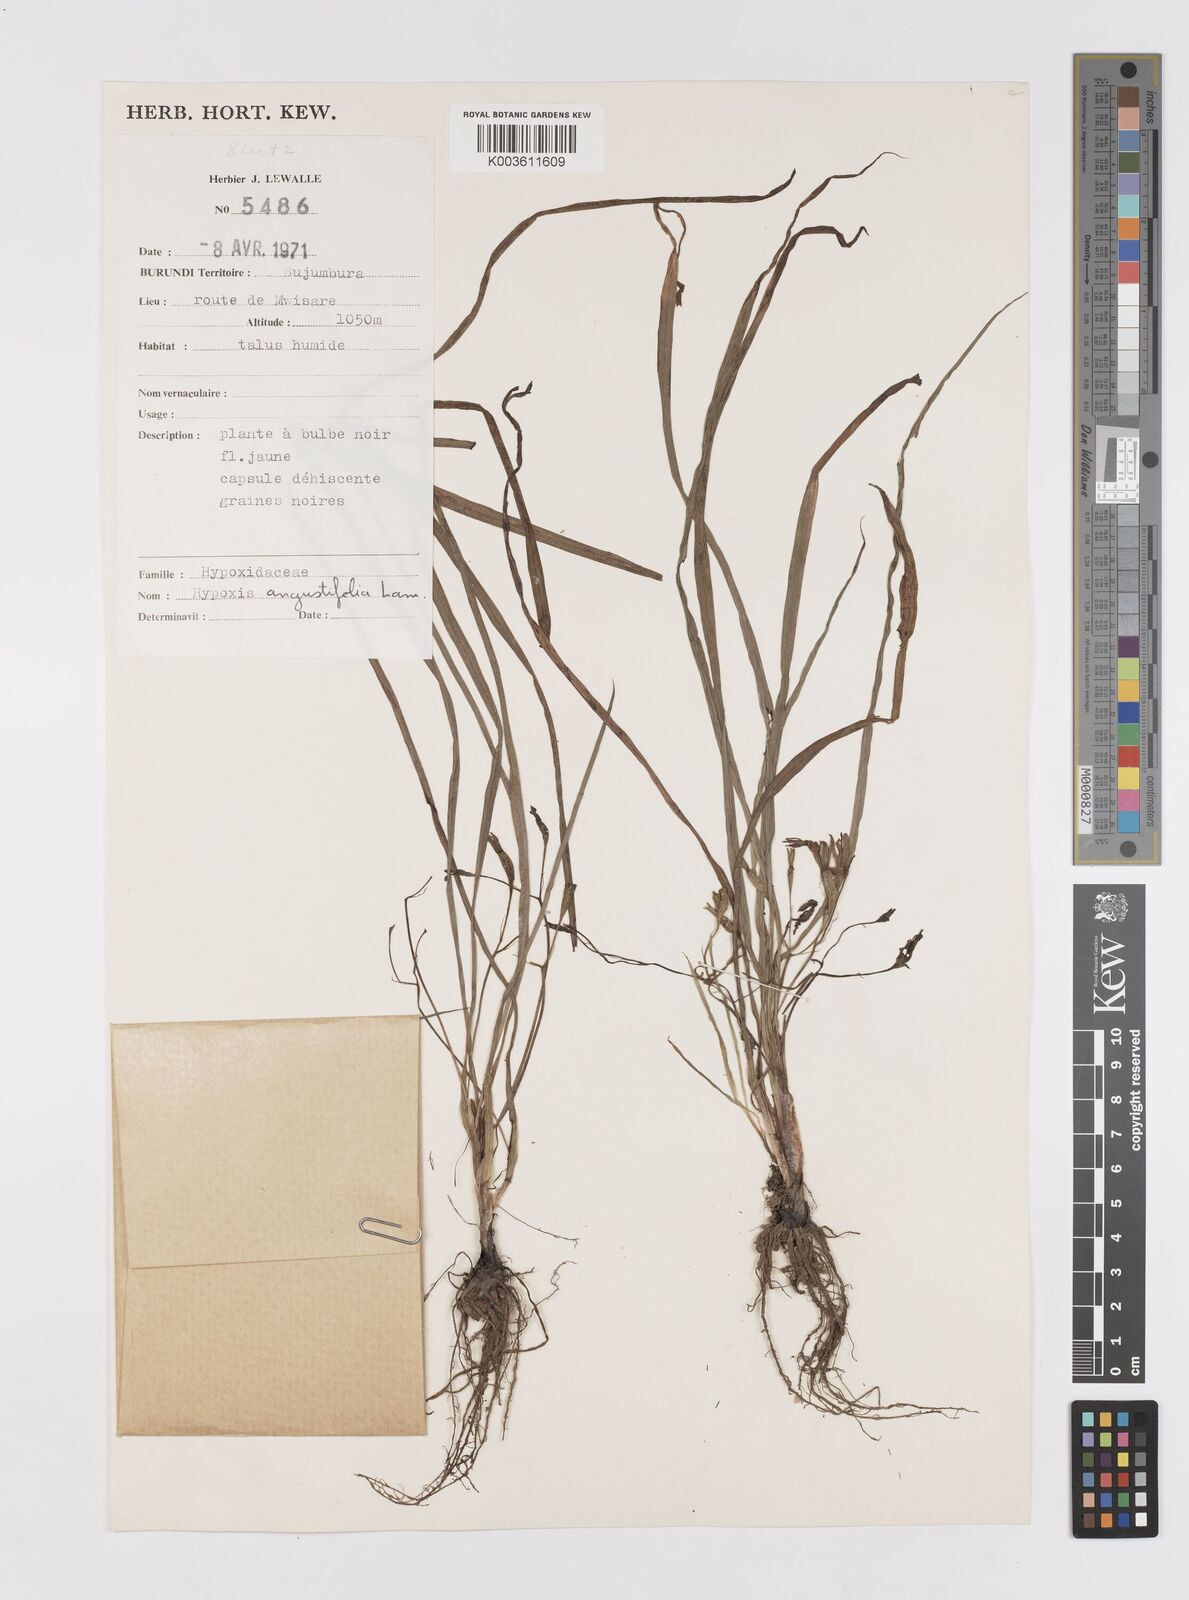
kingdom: Plantae
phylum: Tracheophyta
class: Liliopsida
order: Asparagales
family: Hypoxidaceae
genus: Hypoxis
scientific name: Hypoxis angustifolia
